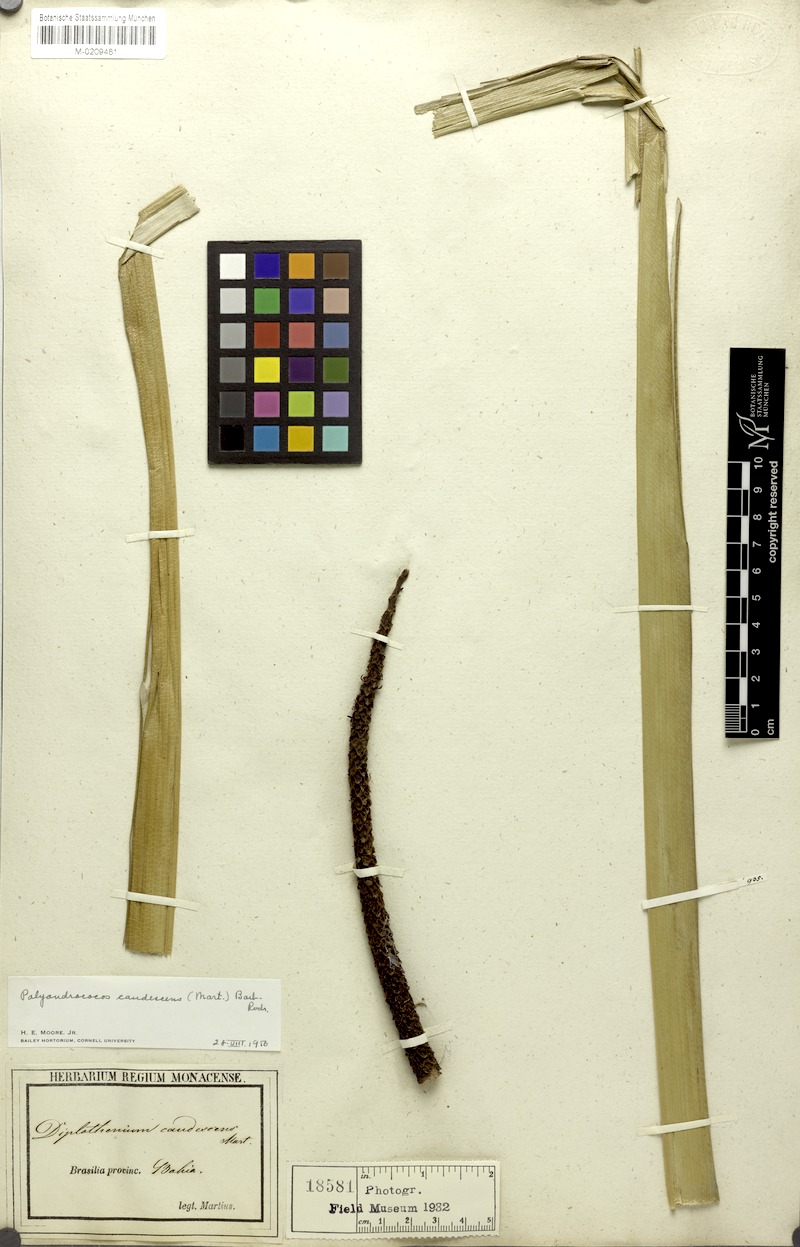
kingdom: Plantae
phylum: Tracheophyta
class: Liliopsida
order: Arecales
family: Arecaceae
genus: Allagoptera
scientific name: Allagoptera caudescens
